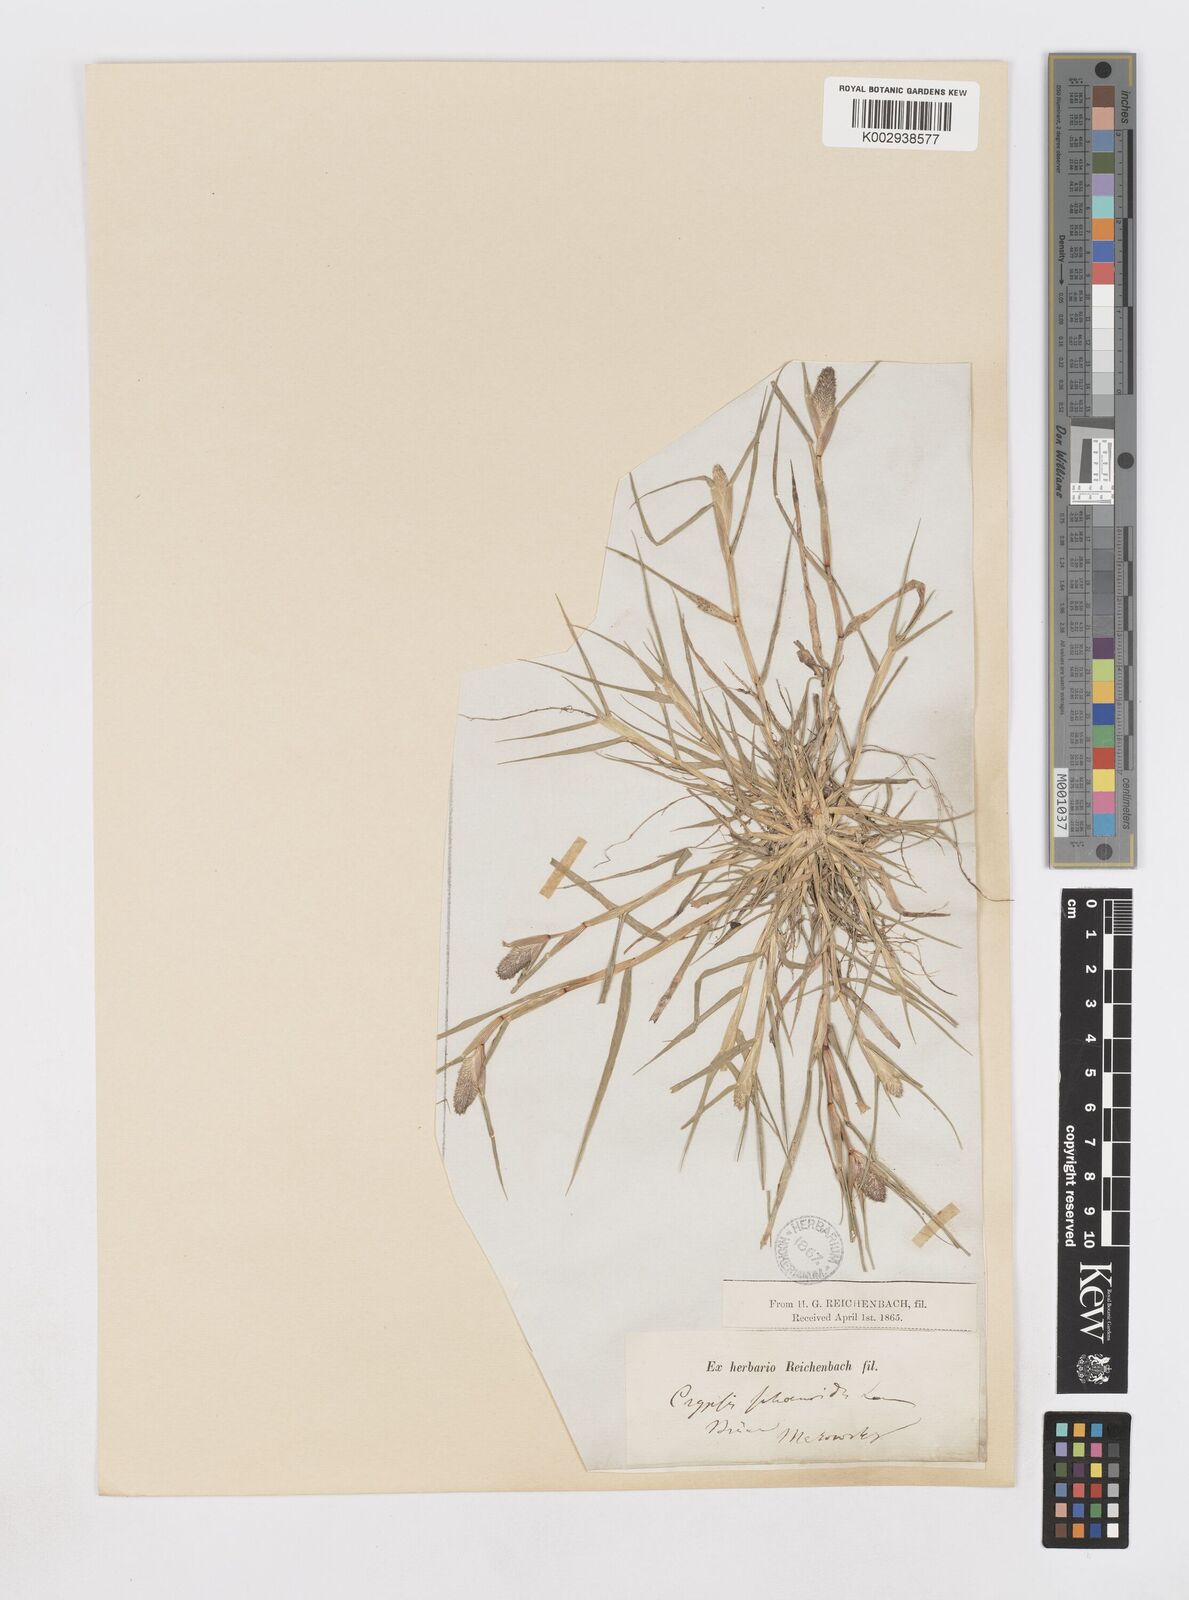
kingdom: Plantae
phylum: Tracheophyta
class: Liliopsida
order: Poales
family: Poaceae
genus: Sporobolus
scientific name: Sporobolus schoenoides
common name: Rush-like timothy
